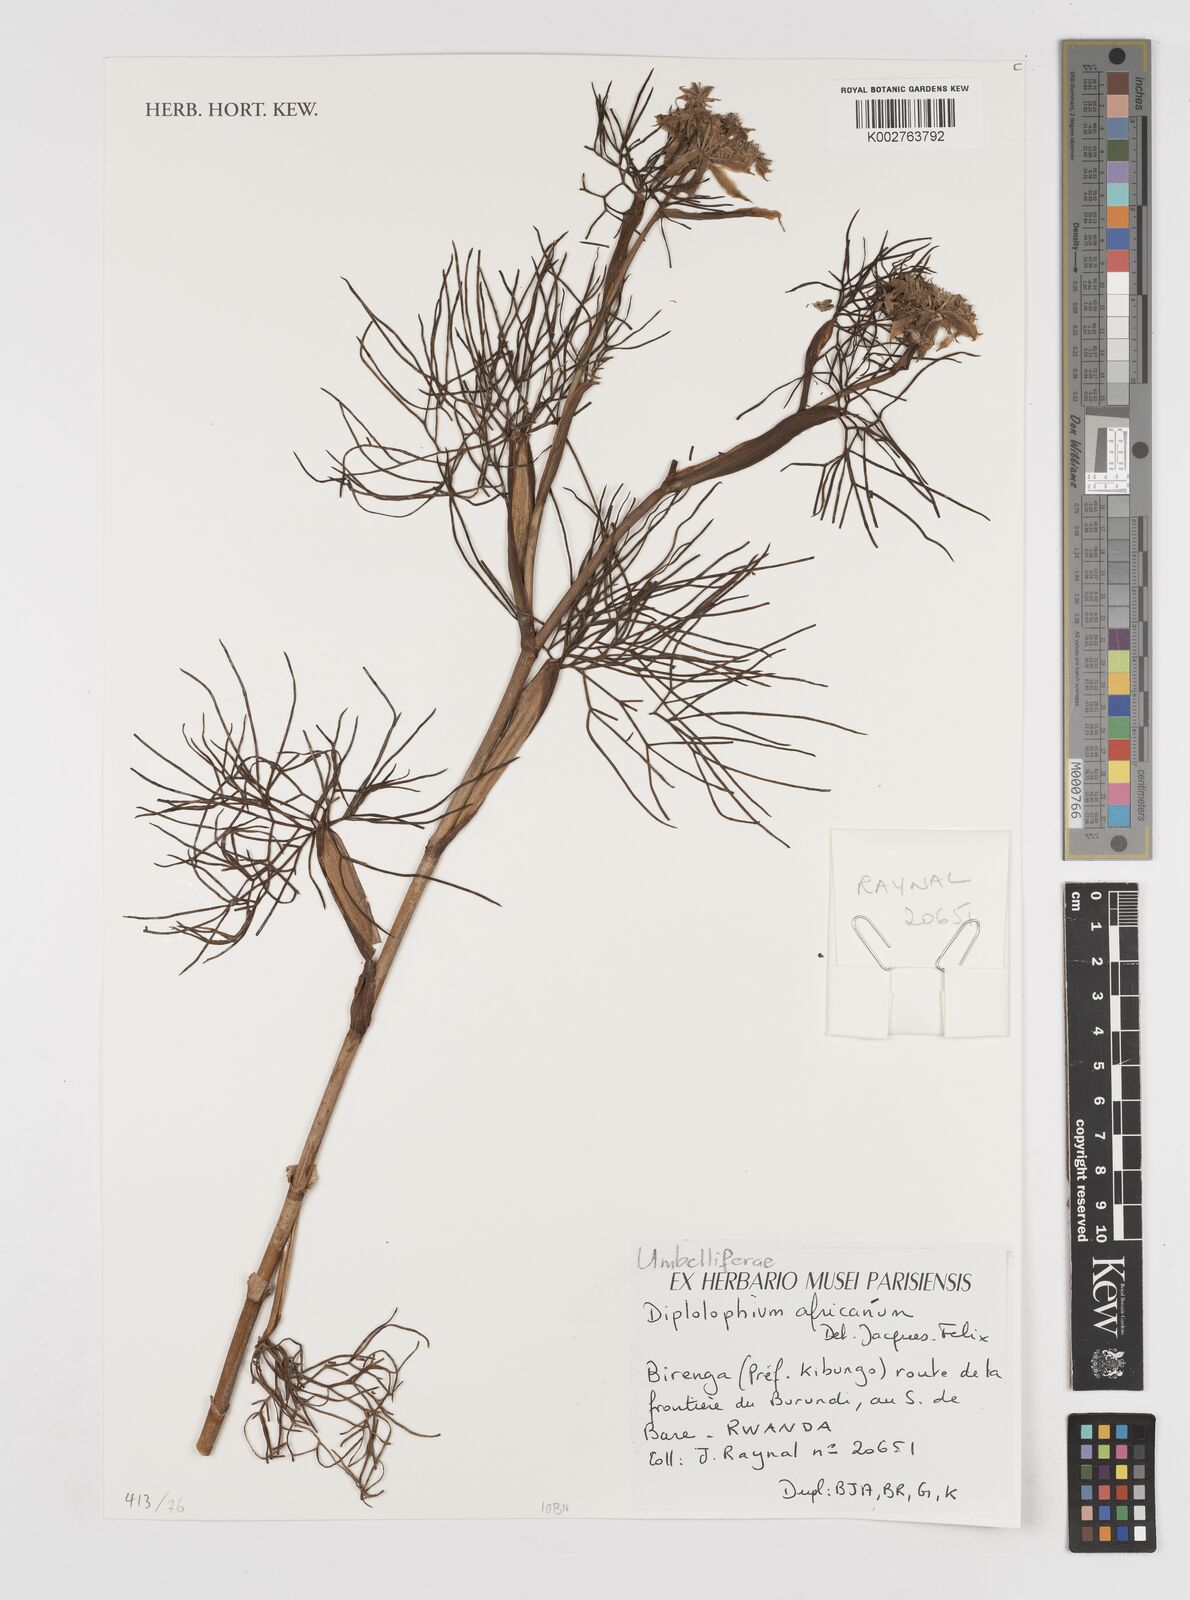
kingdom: Plantae
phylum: Tracheophyta
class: Magnoliopsida
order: Apiales
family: Apiaceae
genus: Diplolophium
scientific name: Diplolophium africanum
